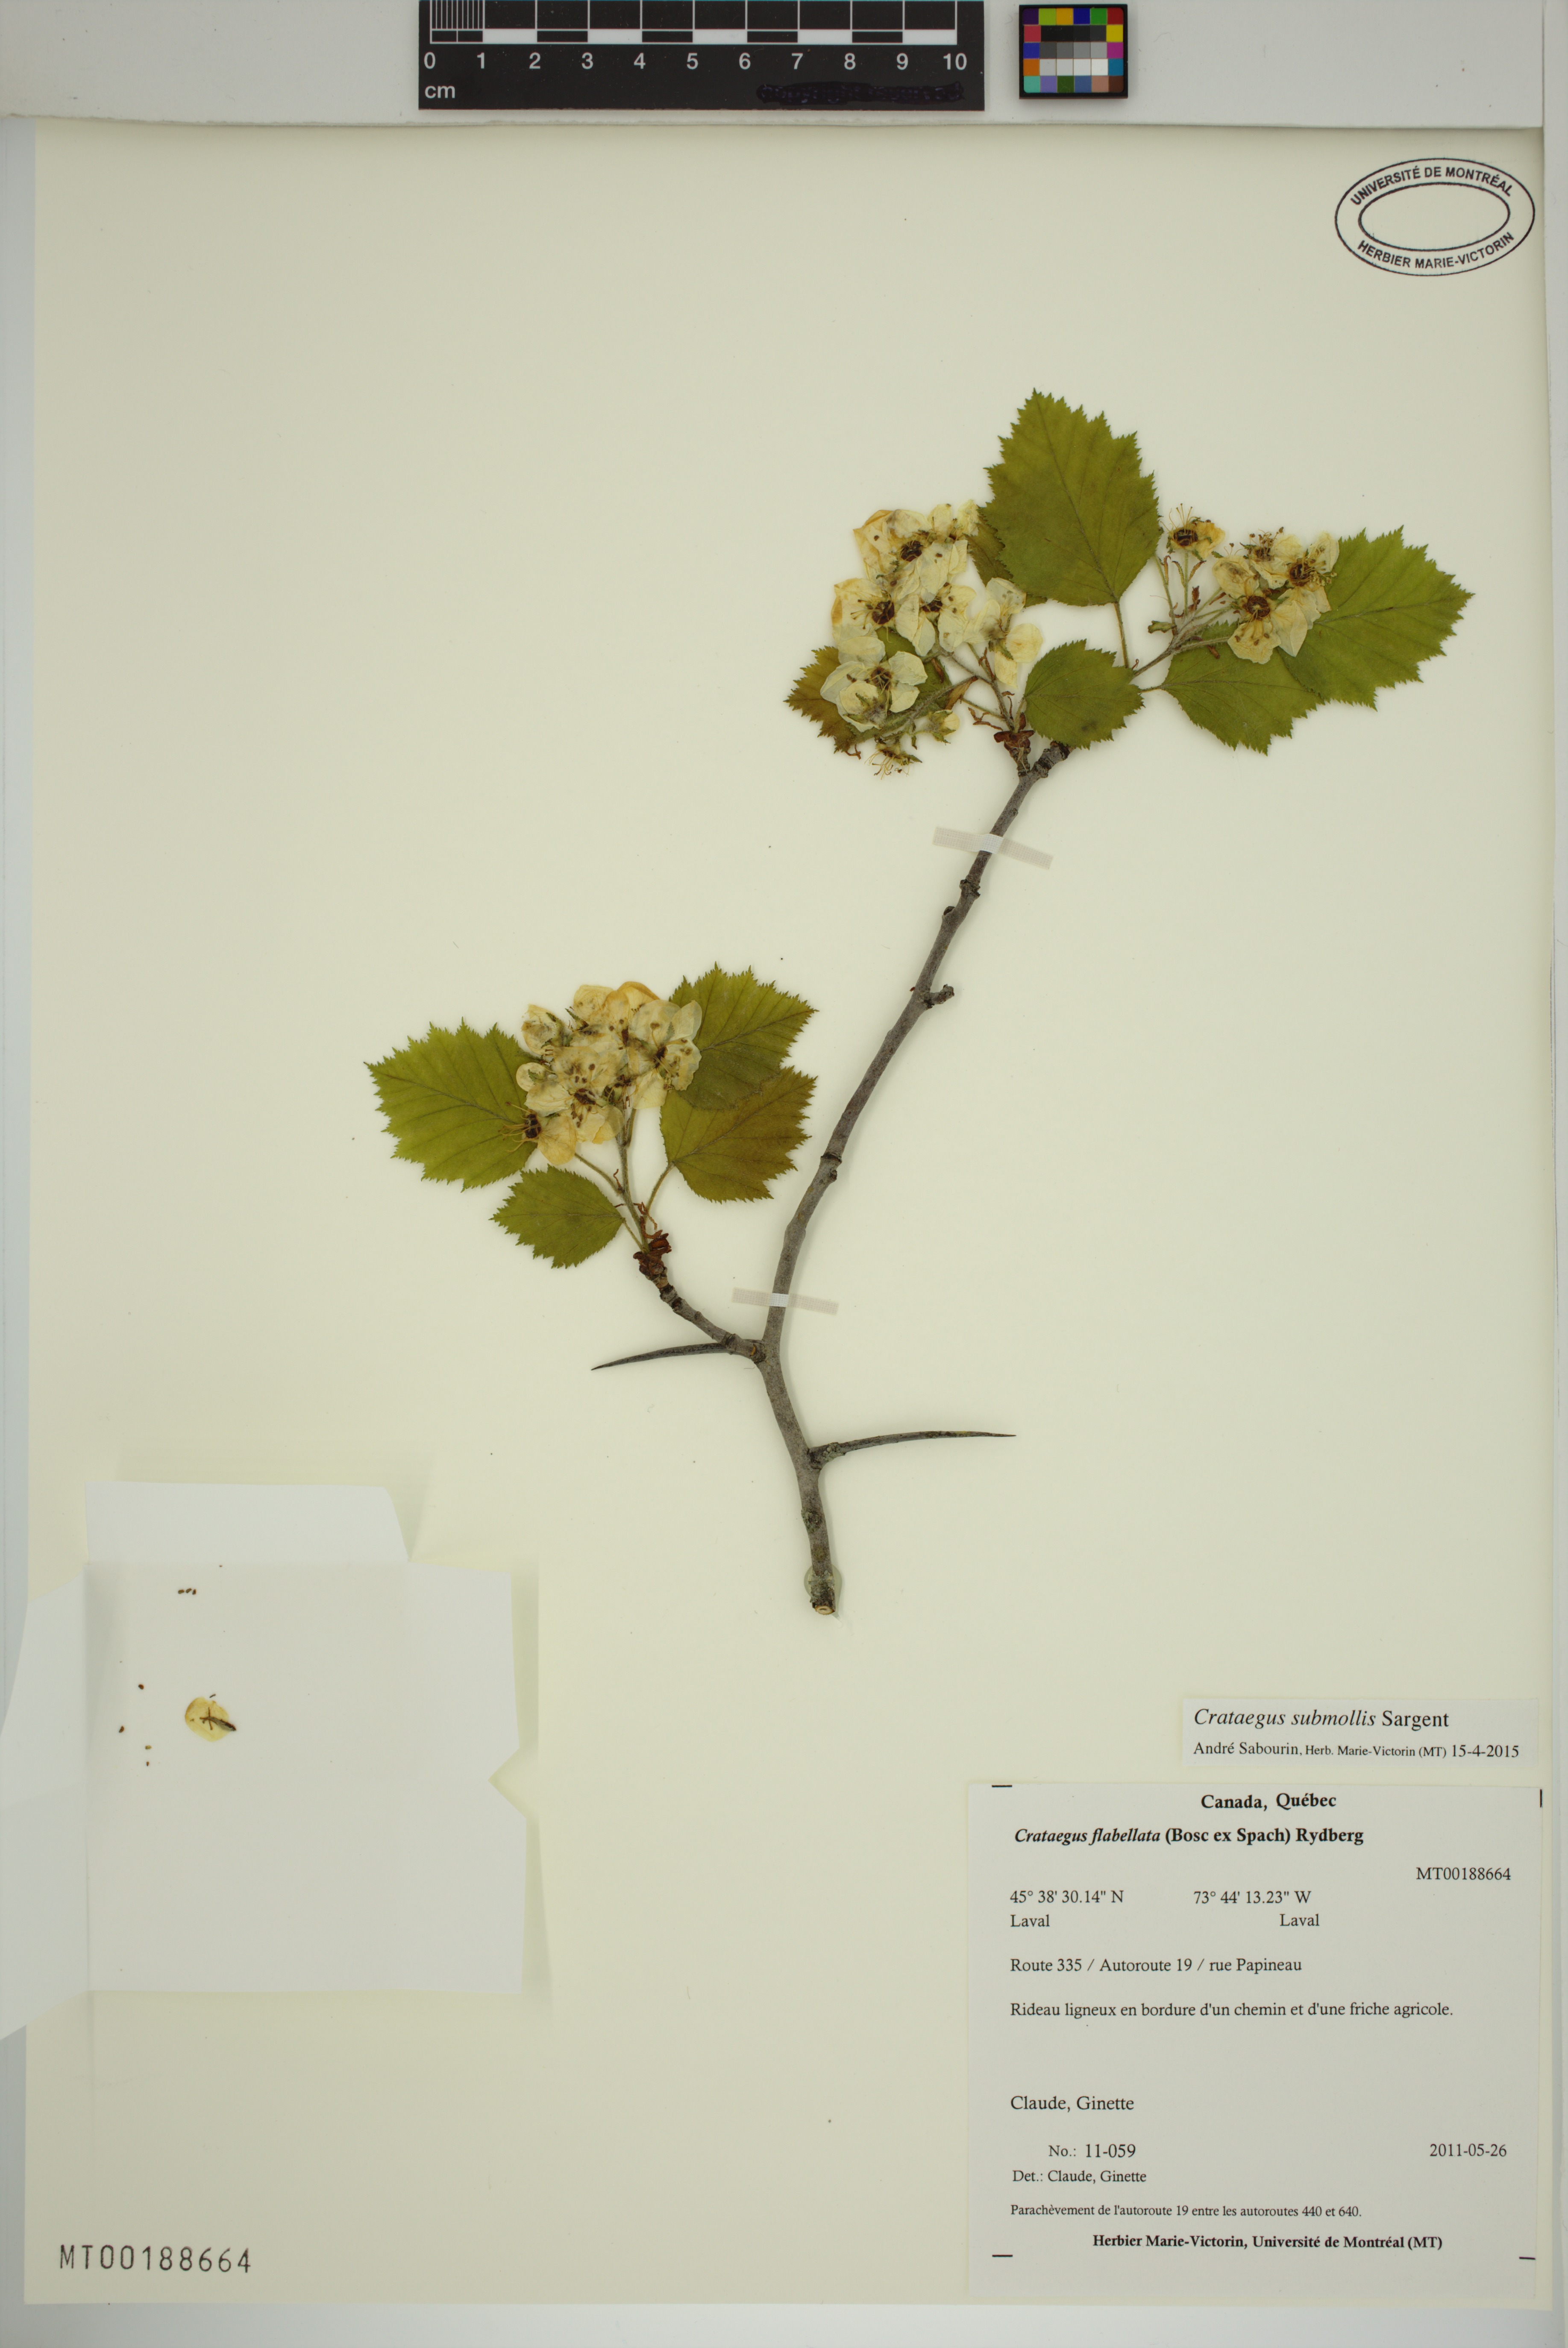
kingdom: Plantae
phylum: Tracheophyta
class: Magnoliopsida
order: Rosales
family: Rosaceae
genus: Crataegus
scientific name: Crataegus submollis
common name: Hairy cockspurthorn
